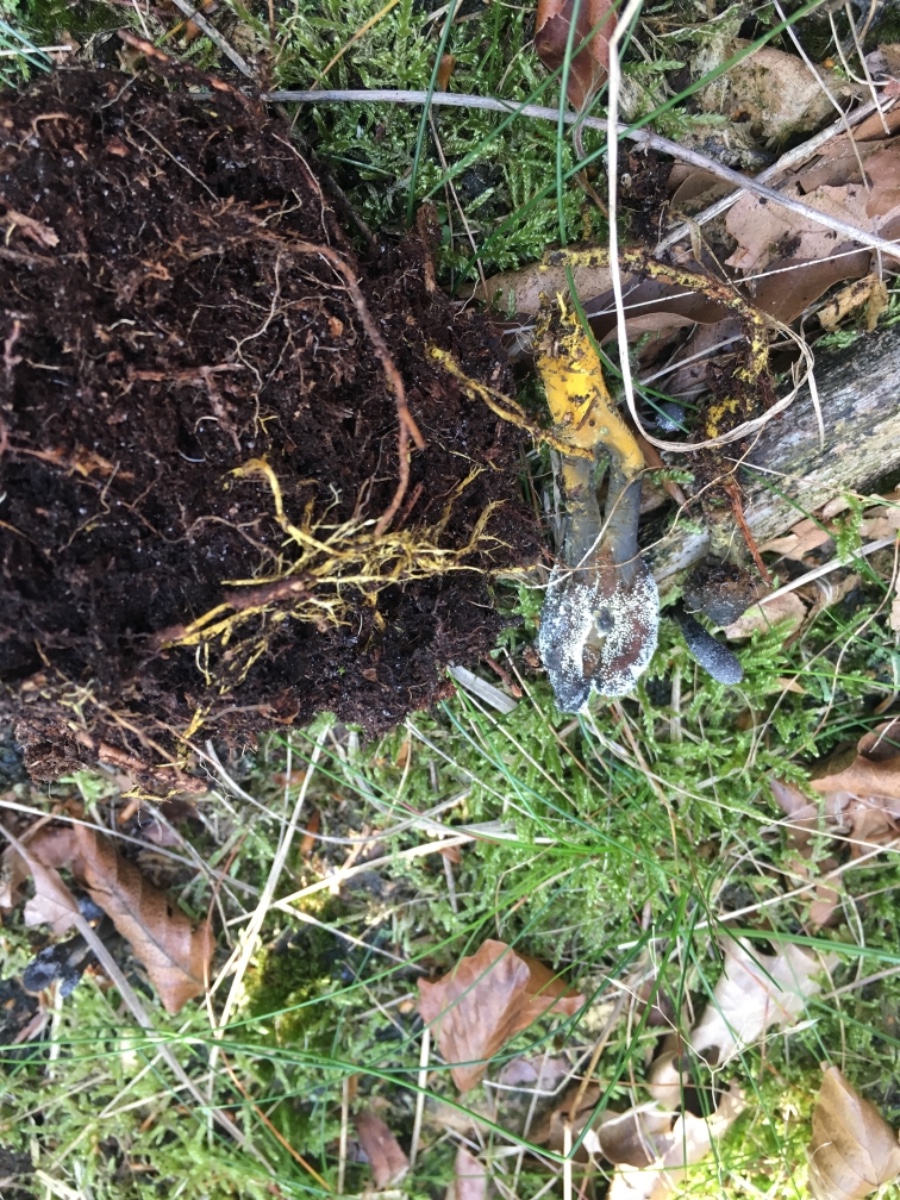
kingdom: Fungi
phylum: Ascomycota
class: Sordariomycetes
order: Hypocreales
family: Ophiocordycipitaceae
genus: Tolypocladium
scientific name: Tolypocladium ophioglossoides
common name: slank snyltekølle
